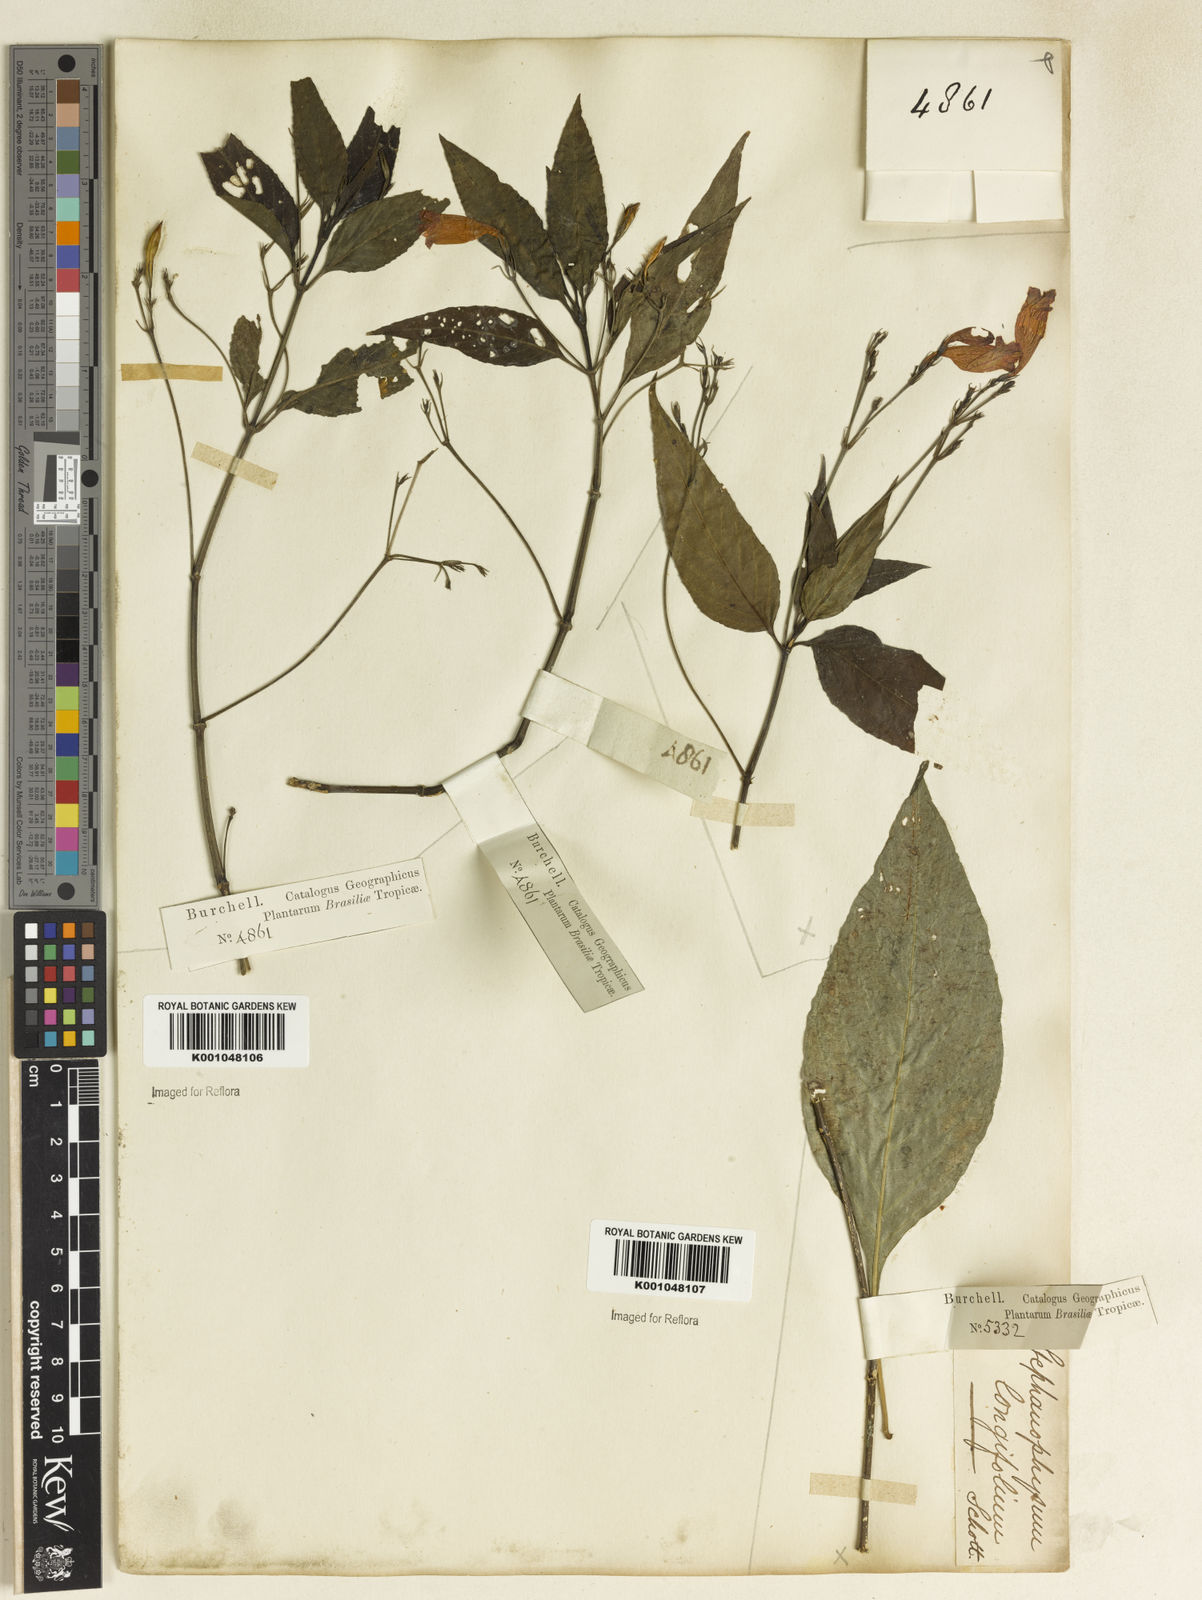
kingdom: Plantae
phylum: Tracheophyta
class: Magnoliopsida
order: Lamiales
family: Acanthaceae
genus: Ruellia
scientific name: Ruellia brevifolia
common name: Tropical wild petunia
